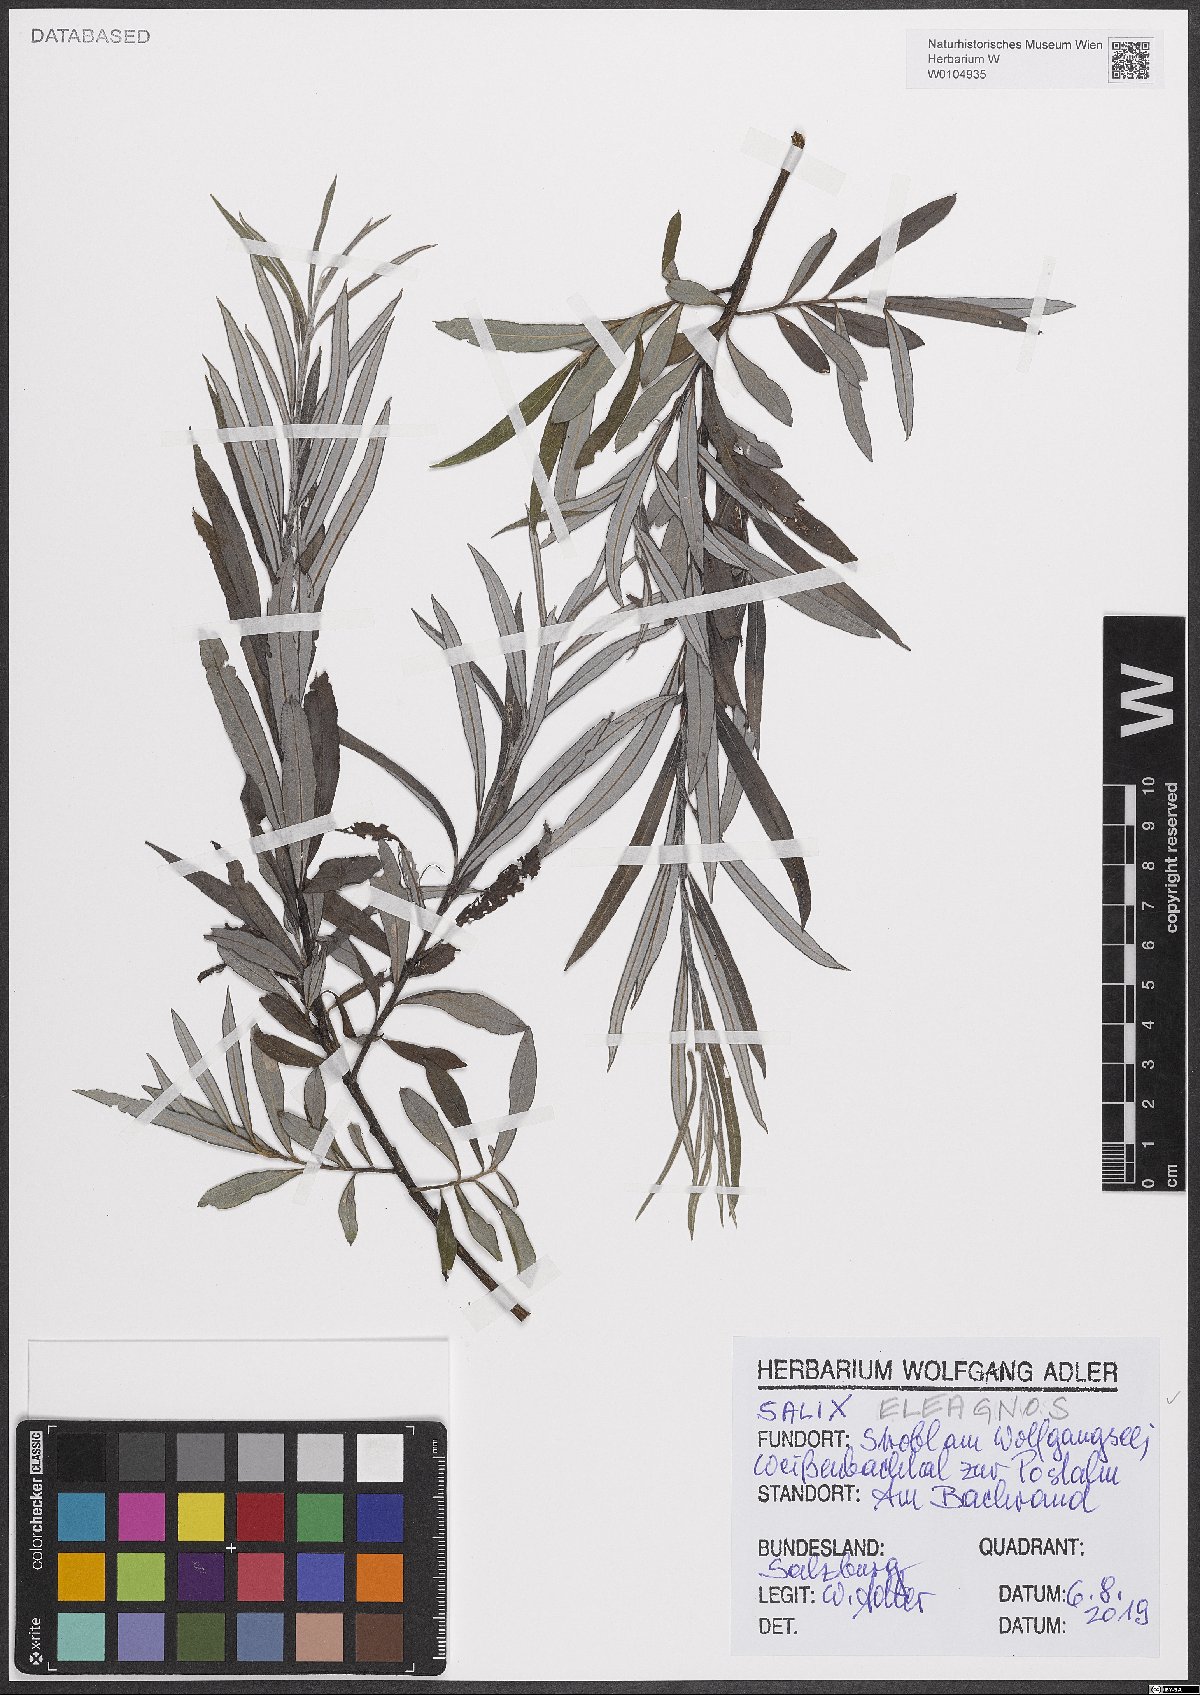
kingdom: Plantae
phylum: Tracheophyta
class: Magnoliopsida
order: Malpighiales
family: Salicaceae
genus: Salix
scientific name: Salix eleagnos
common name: Elaeagnus willow
